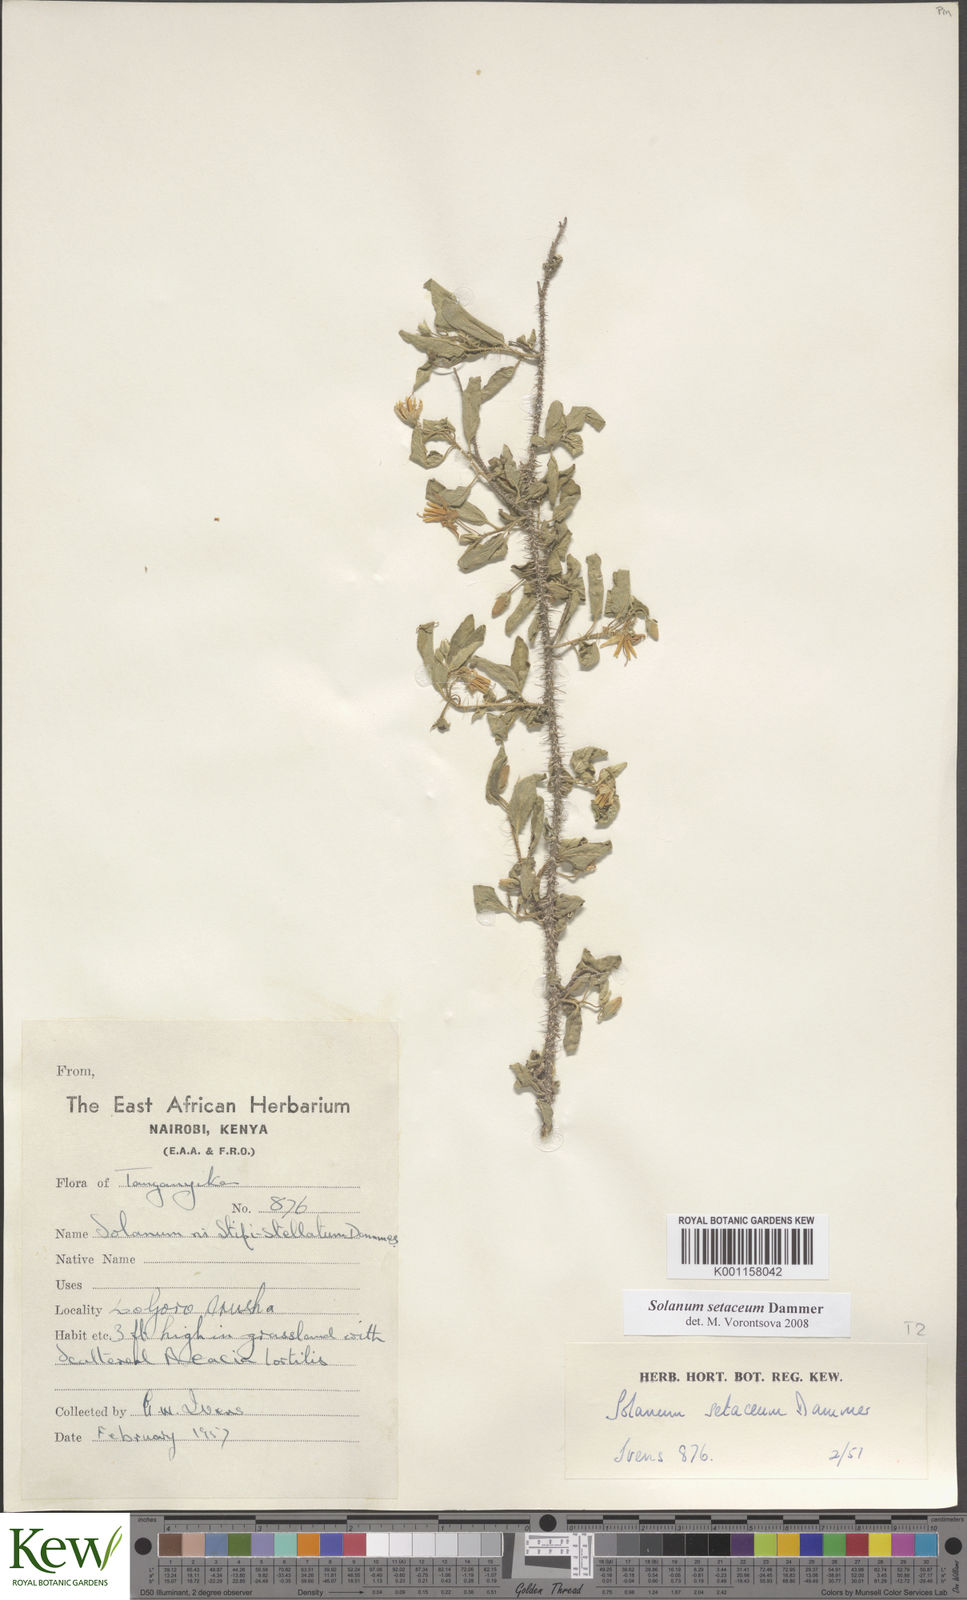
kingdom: Plantae
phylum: Tracheophyta
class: Magnoliopsida
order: Solanales
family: Solanaceae
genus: Solanum
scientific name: Solanum setaceum
